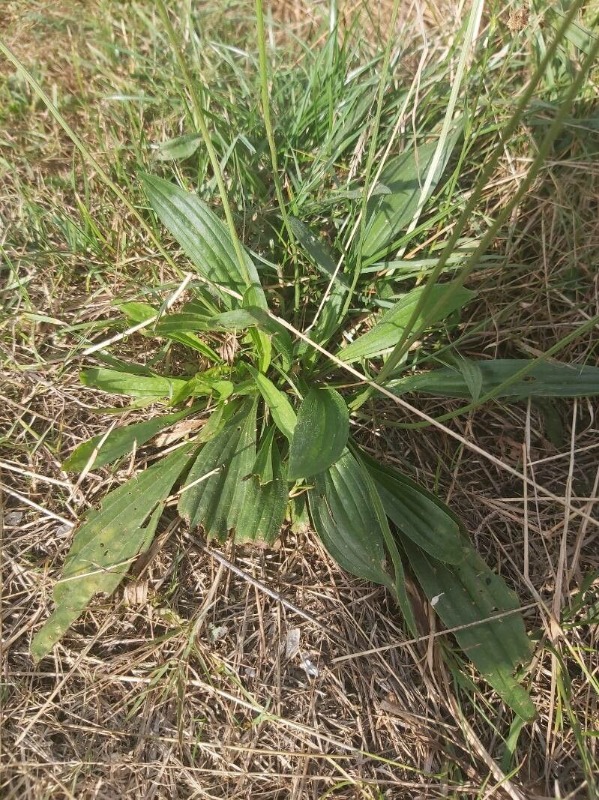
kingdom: Plantae
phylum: Tracheophyta
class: Magnoliopsida
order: Lamiales
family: Plantaginaceae
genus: Plantago
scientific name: Plantago lanceolata
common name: Lancet-vejbred
